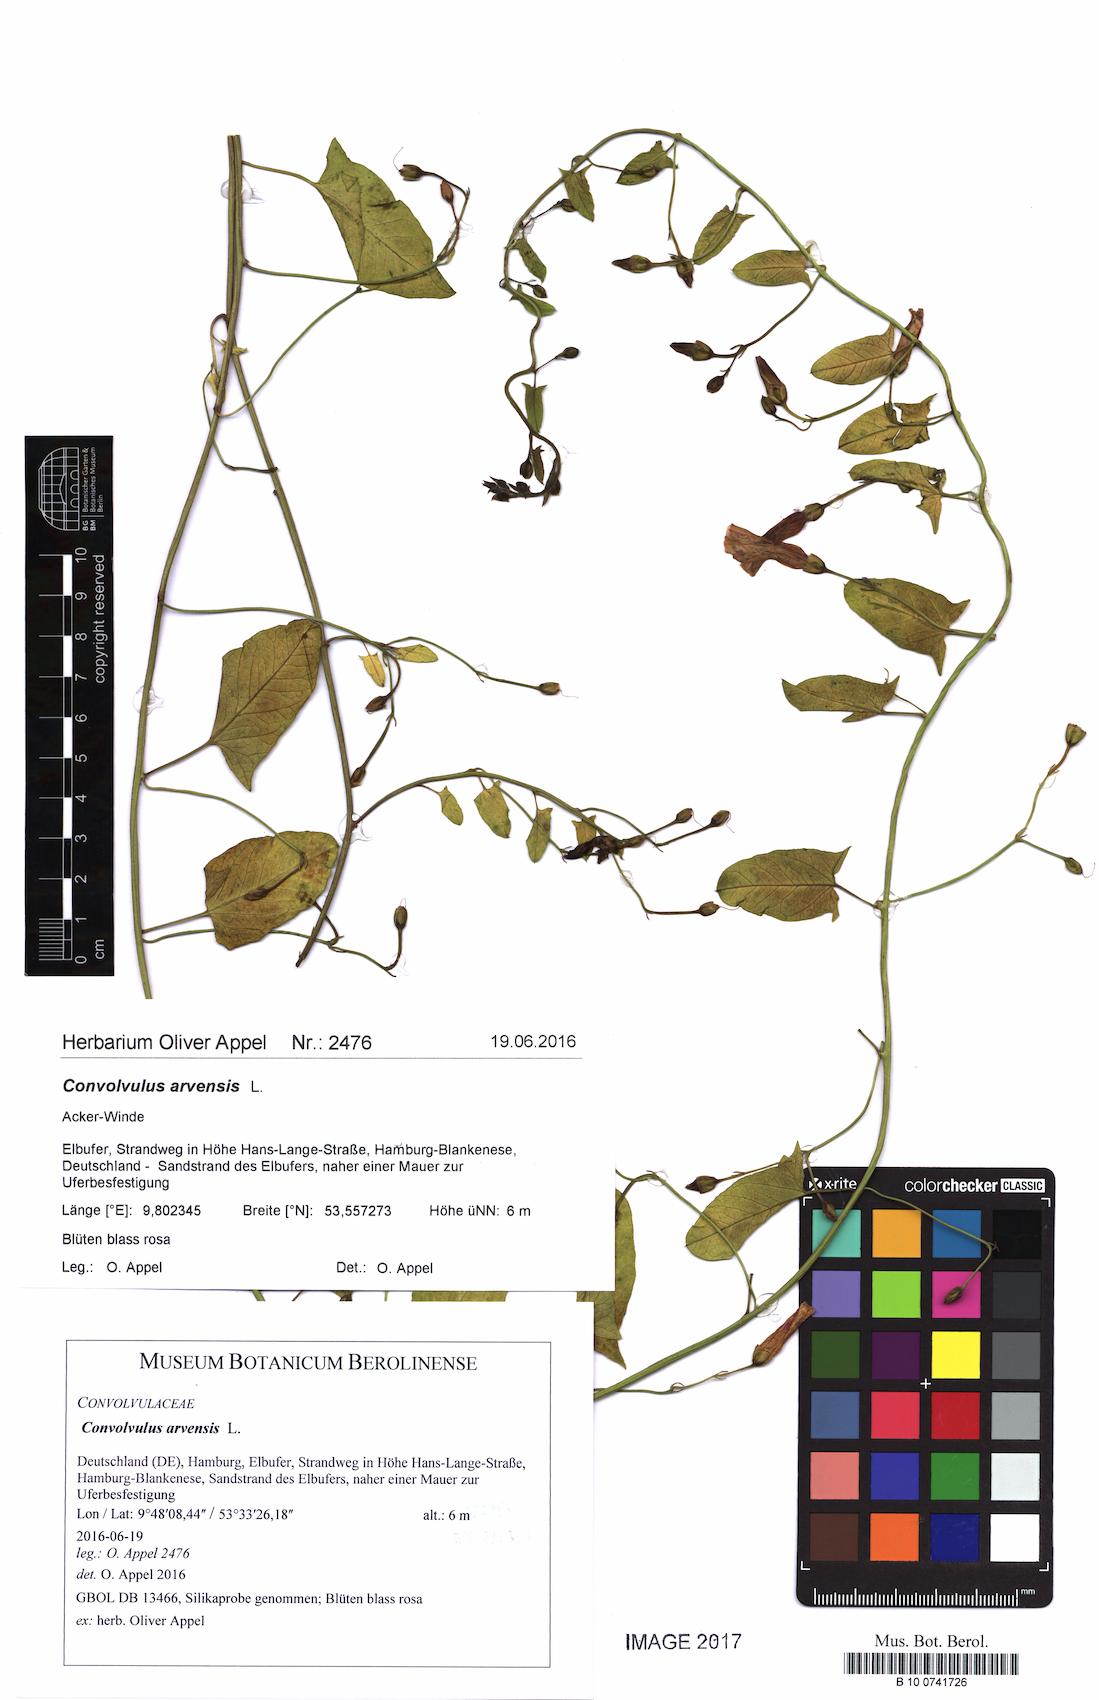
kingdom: Plantae
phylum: Tracheophyta
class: Magnoliopsida
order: Solanales
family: Convolvulaceae
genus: Convolvulus
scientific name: Convolvulus arvensis
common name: Field bindweed
